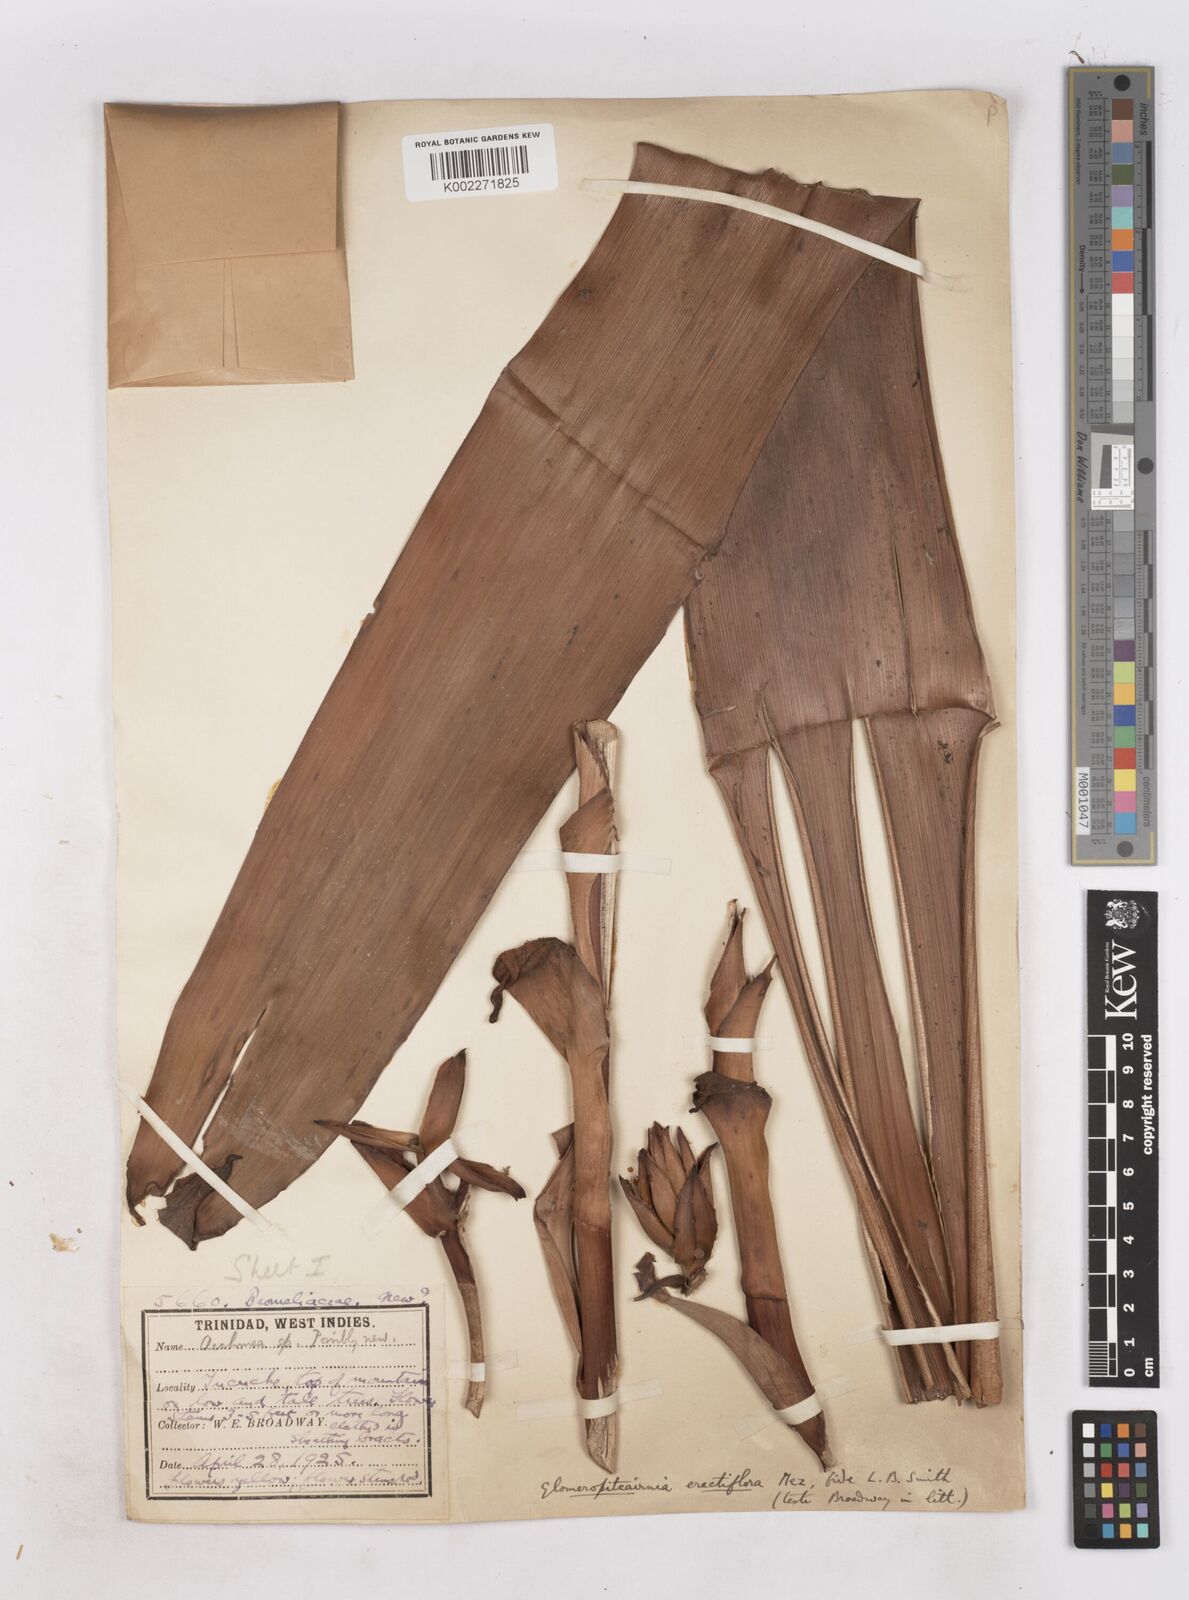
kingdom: Plantae
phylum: Tracheophyta
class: Liliopsida
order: Poales
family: Bromeliaceae
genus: Glomeropitcairnia
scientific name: Glomeropitcairnia erectiflora
